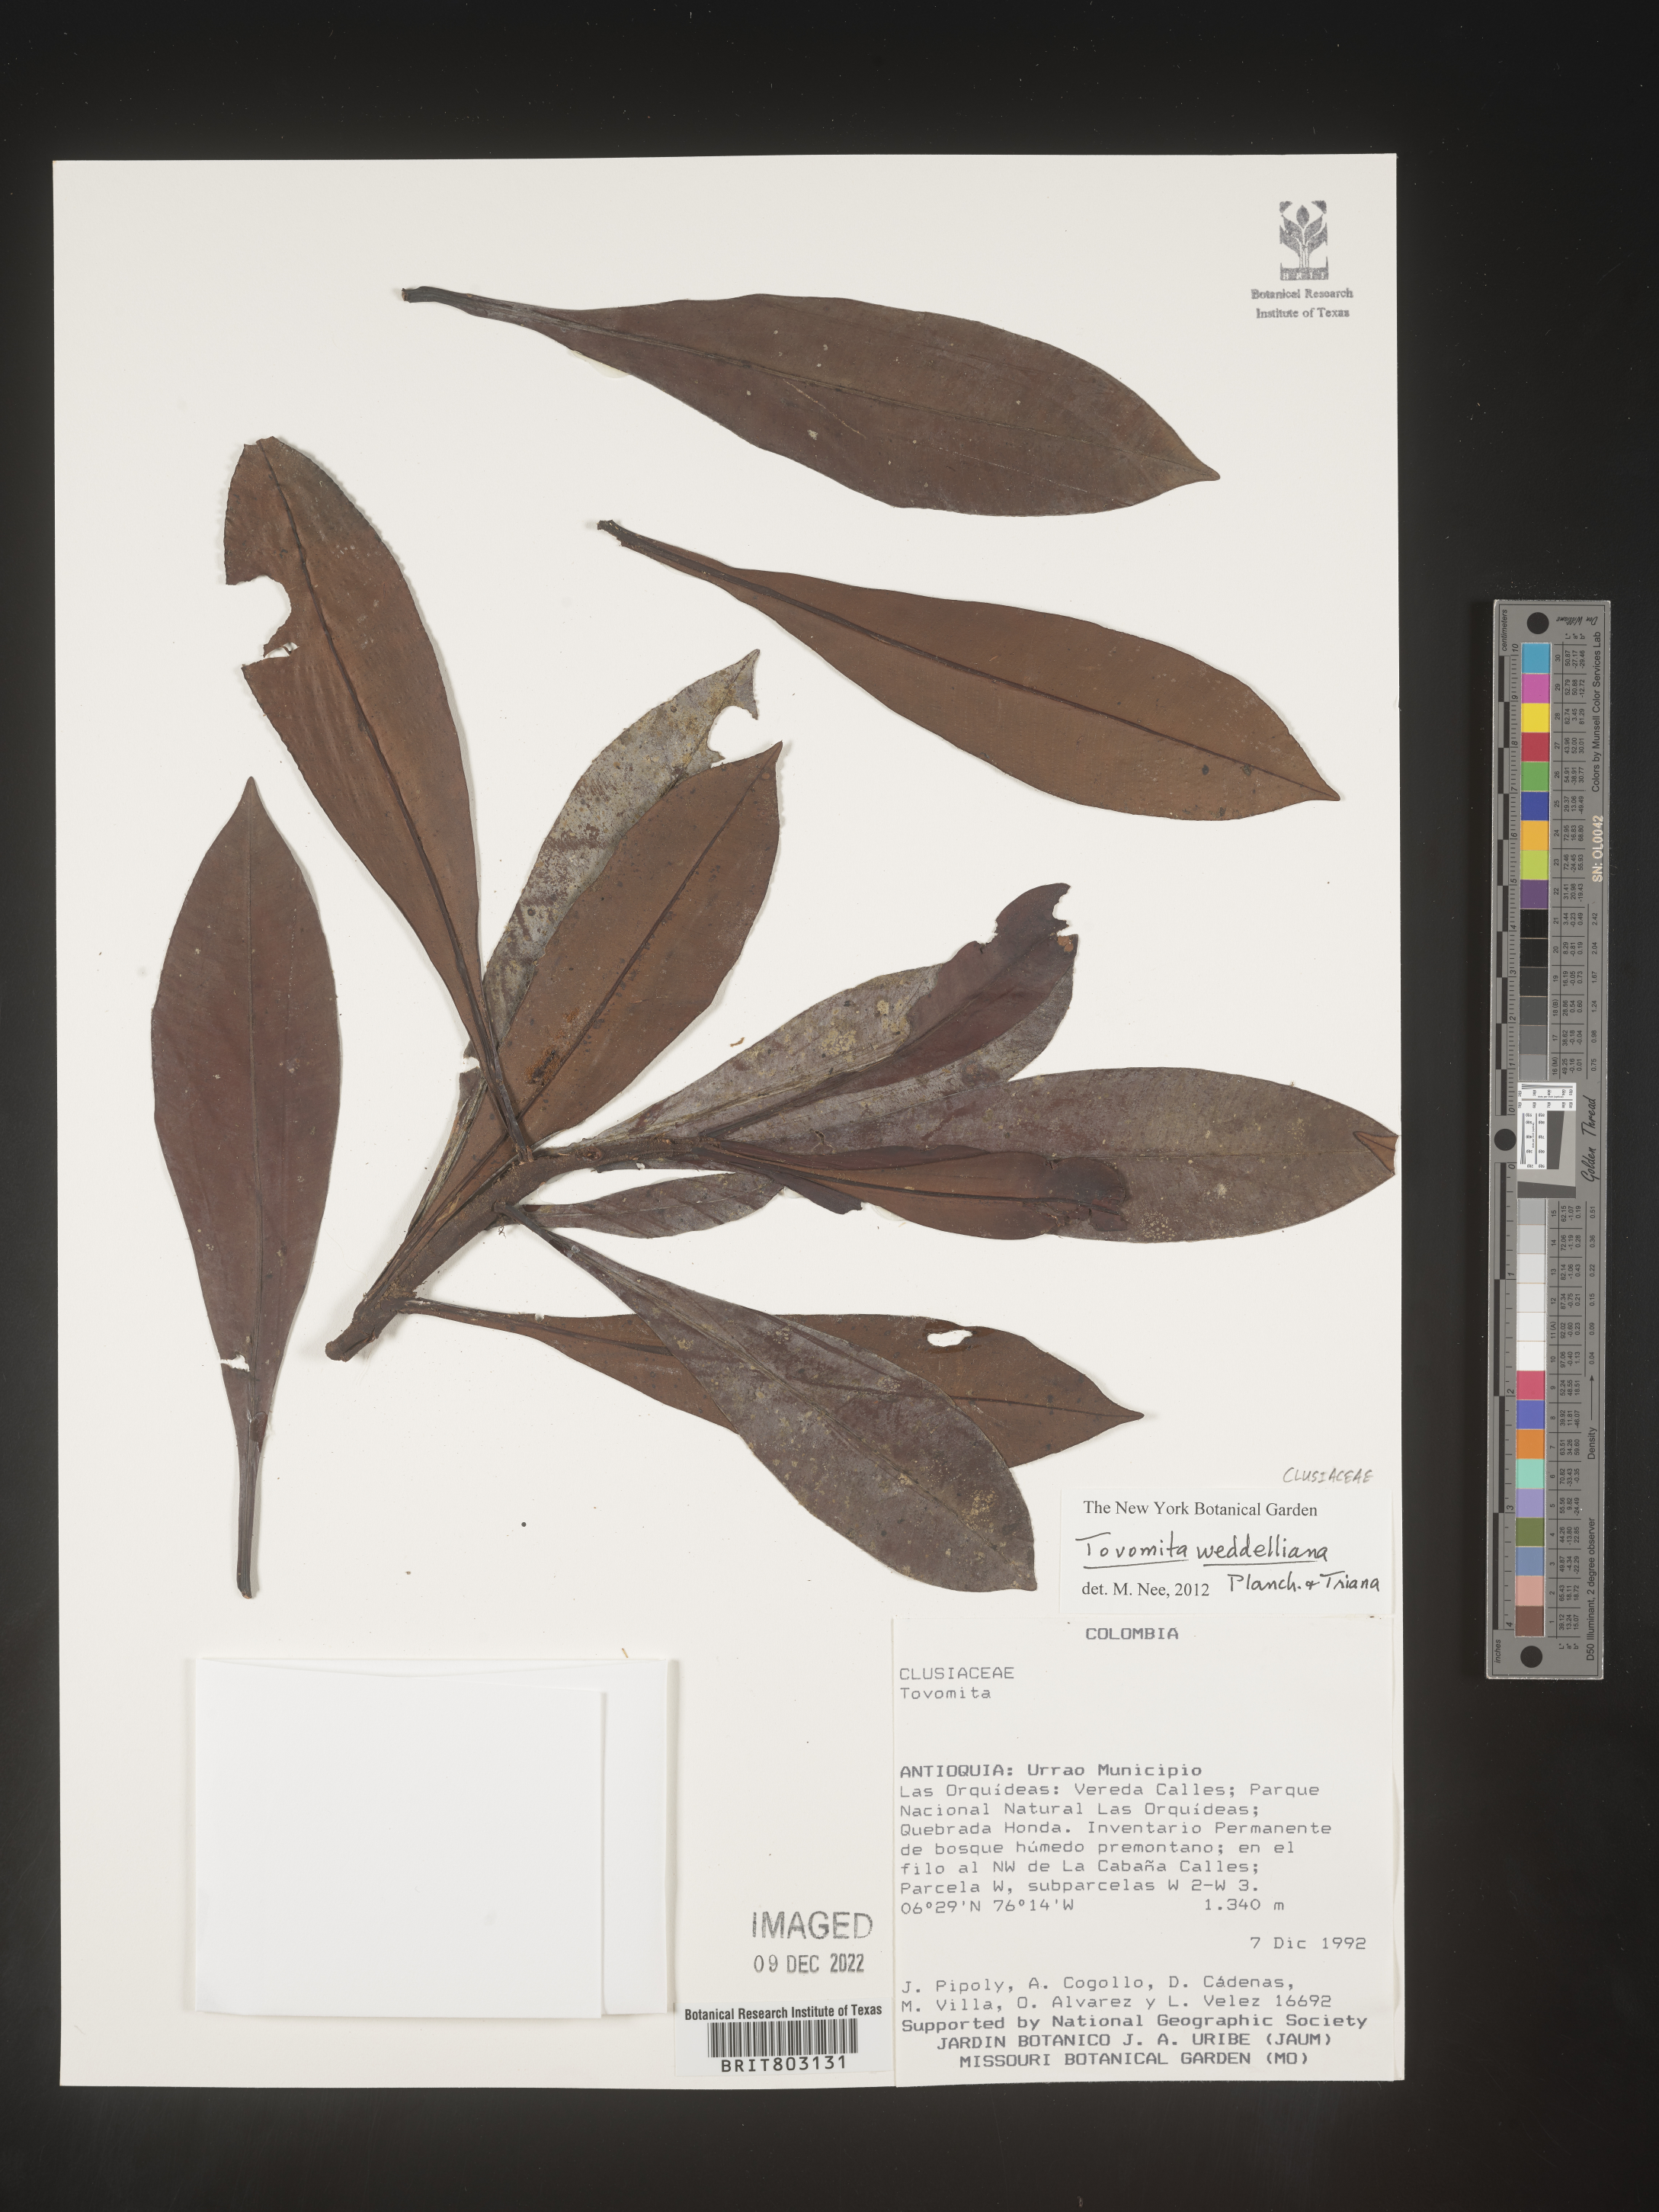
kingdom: Plantae
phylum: Tracheophyta
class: Magnoliopsida
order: Malpighiales
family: Clusiaceae
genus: Arawakia
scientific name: Arawakia weddelliana
